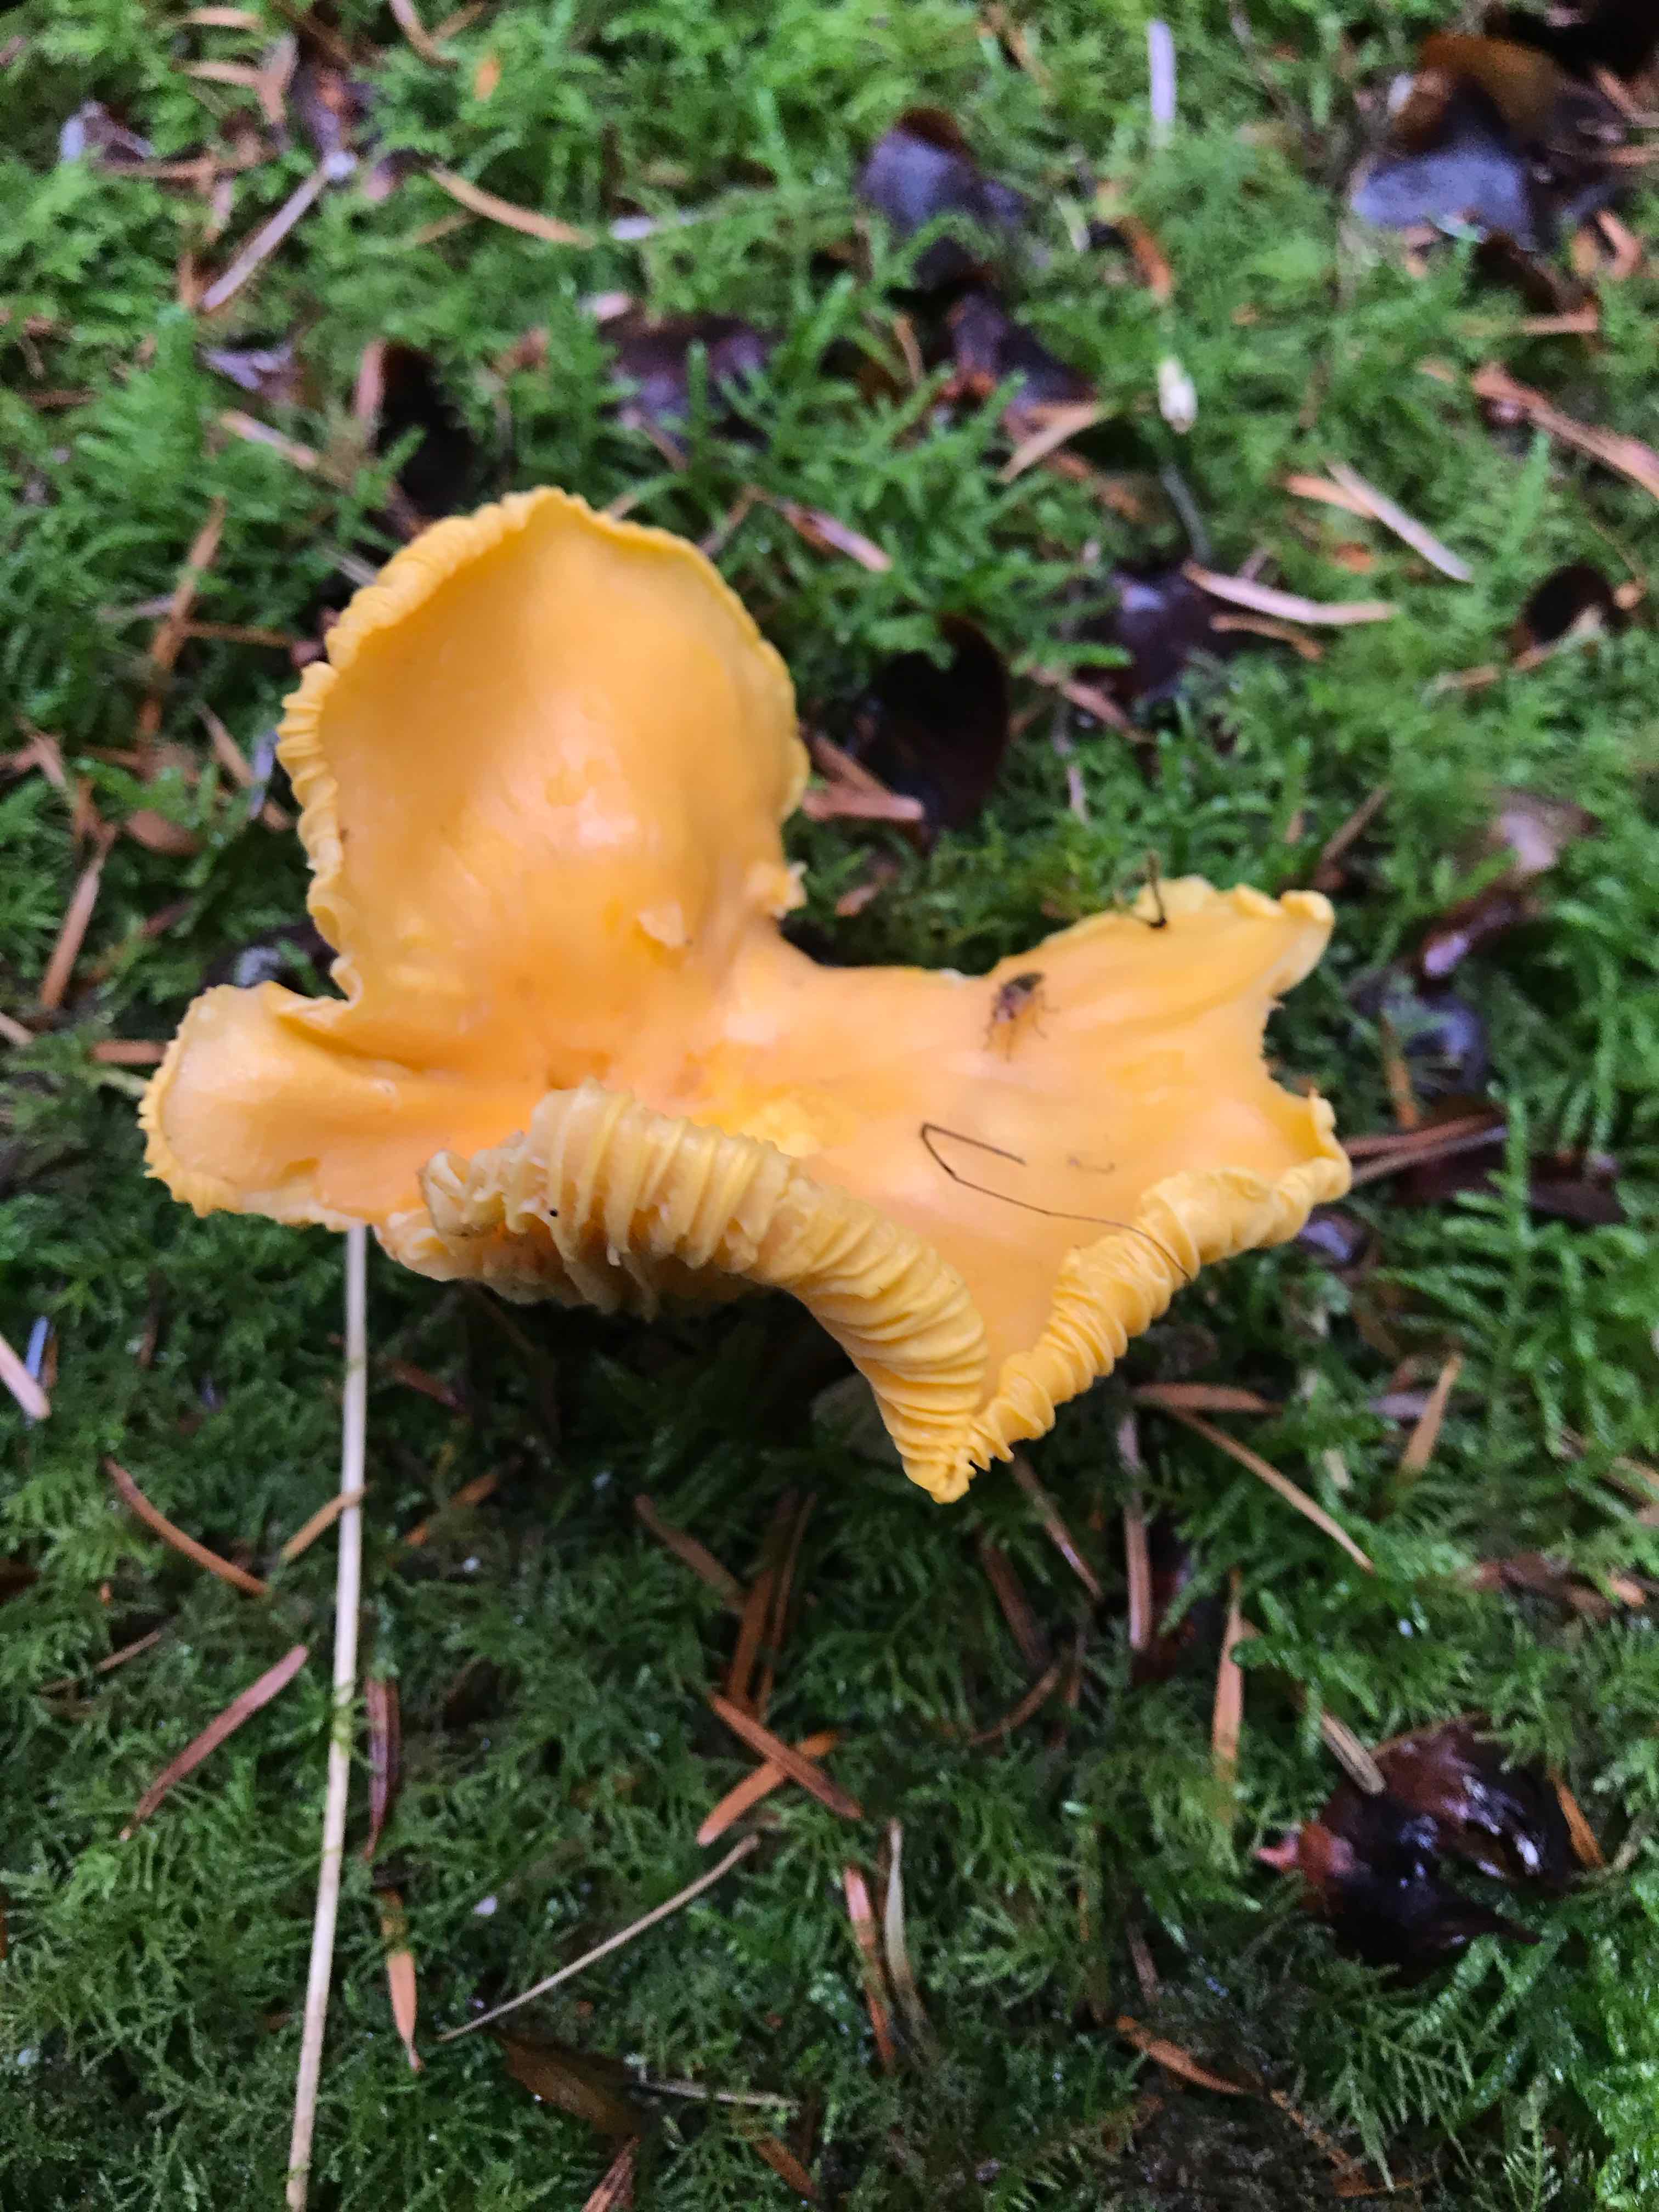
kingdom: Fungi
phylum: Basidiomycota
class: Agaricomycetes
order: Cantharellales
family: Hydnaceae
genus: Cantharellus
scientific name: Cantharellus cibarius
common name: almindelig kantarel
